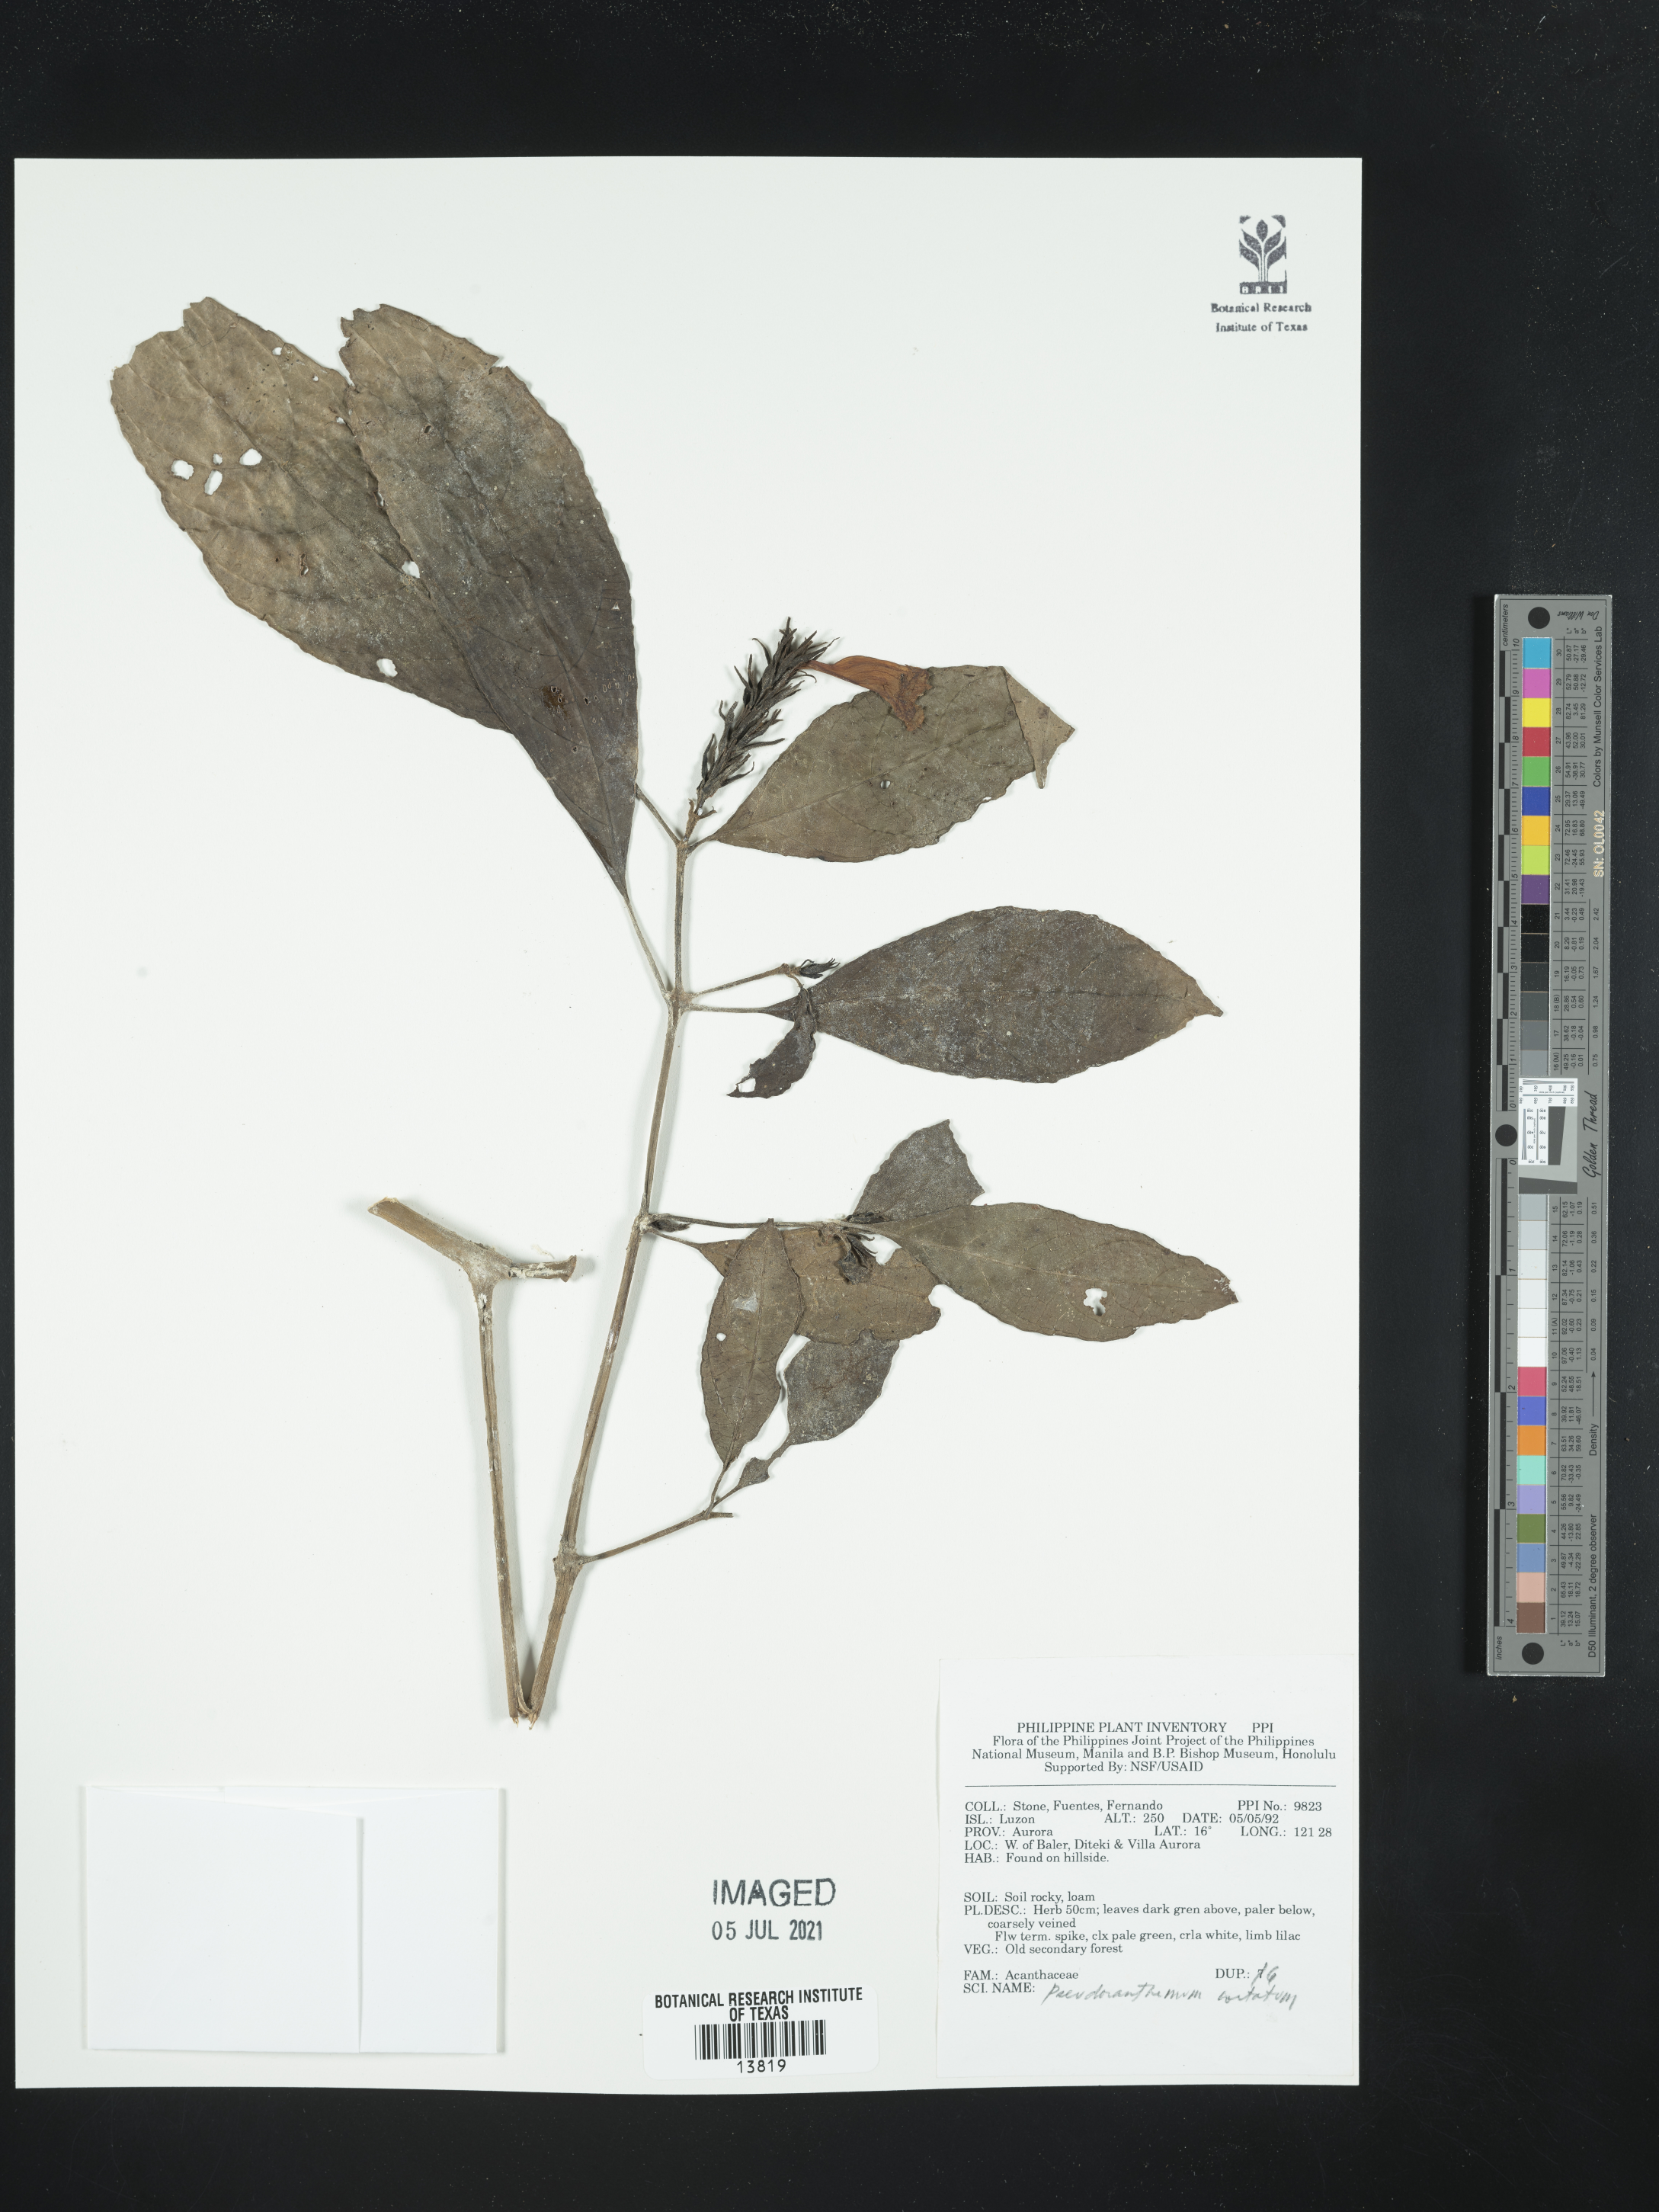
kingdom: Plantae
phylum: Tracheophyta
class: Magnoliopsida
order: Lamiales
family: Acanthaceae
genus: Pseuderanthemum
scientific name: Pseuderanthemum
